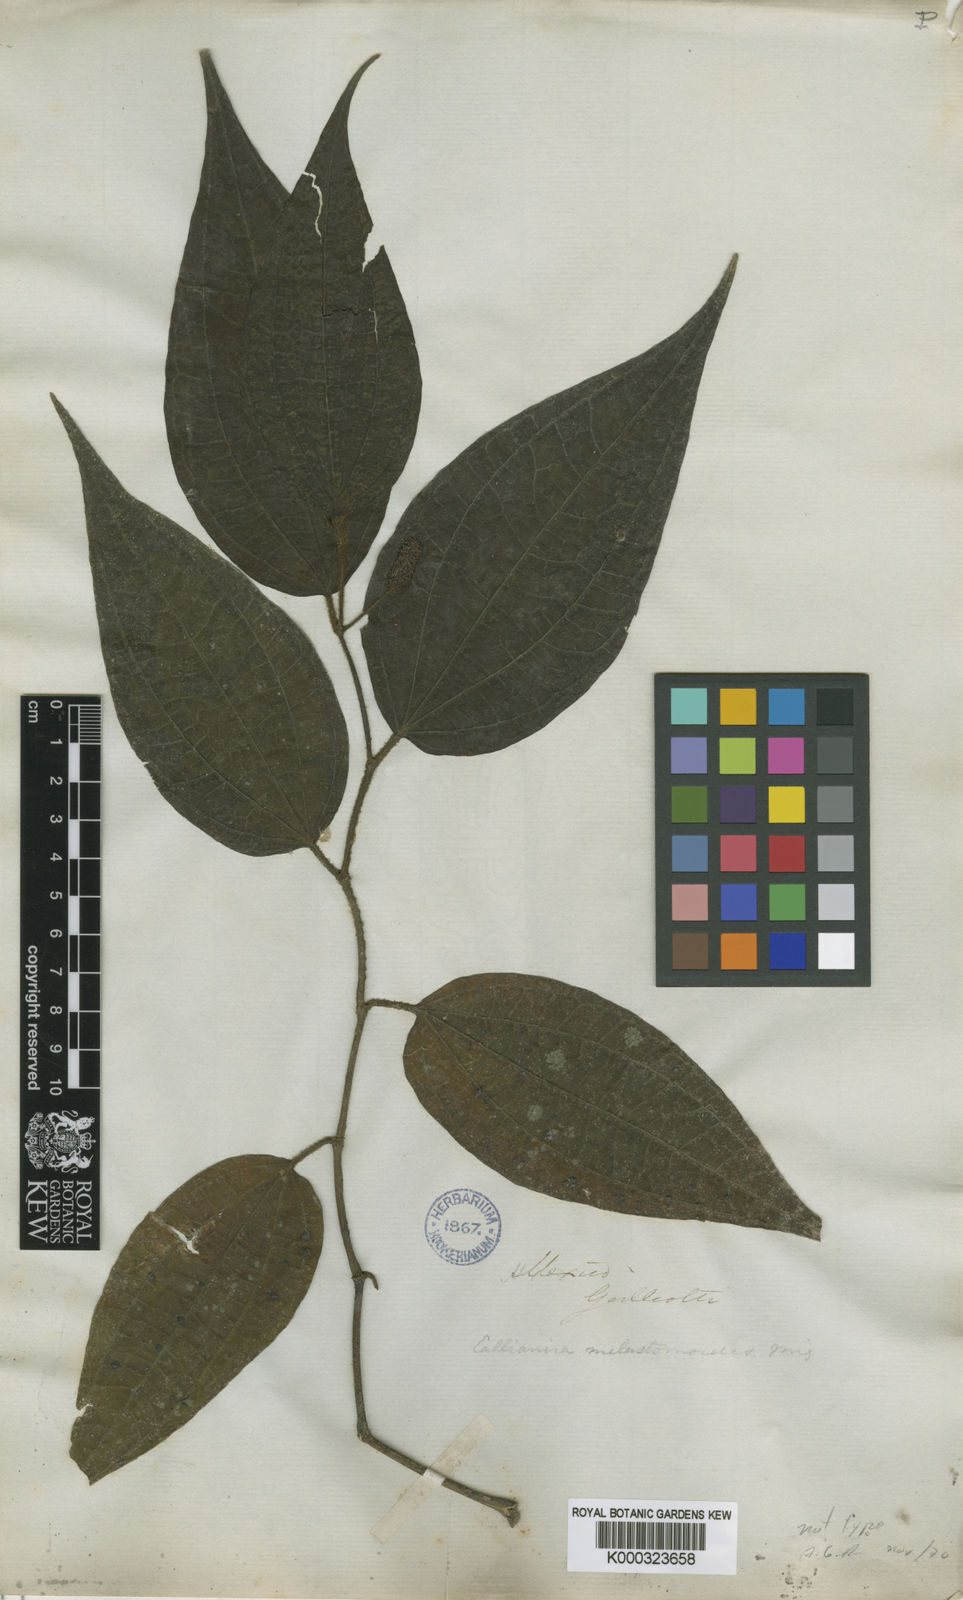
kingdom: Plantae
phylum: Tracheophyta
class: Magnoliopsida
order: Piperales
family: Piperaceae
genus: Piper
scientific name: Piper melastomoides
